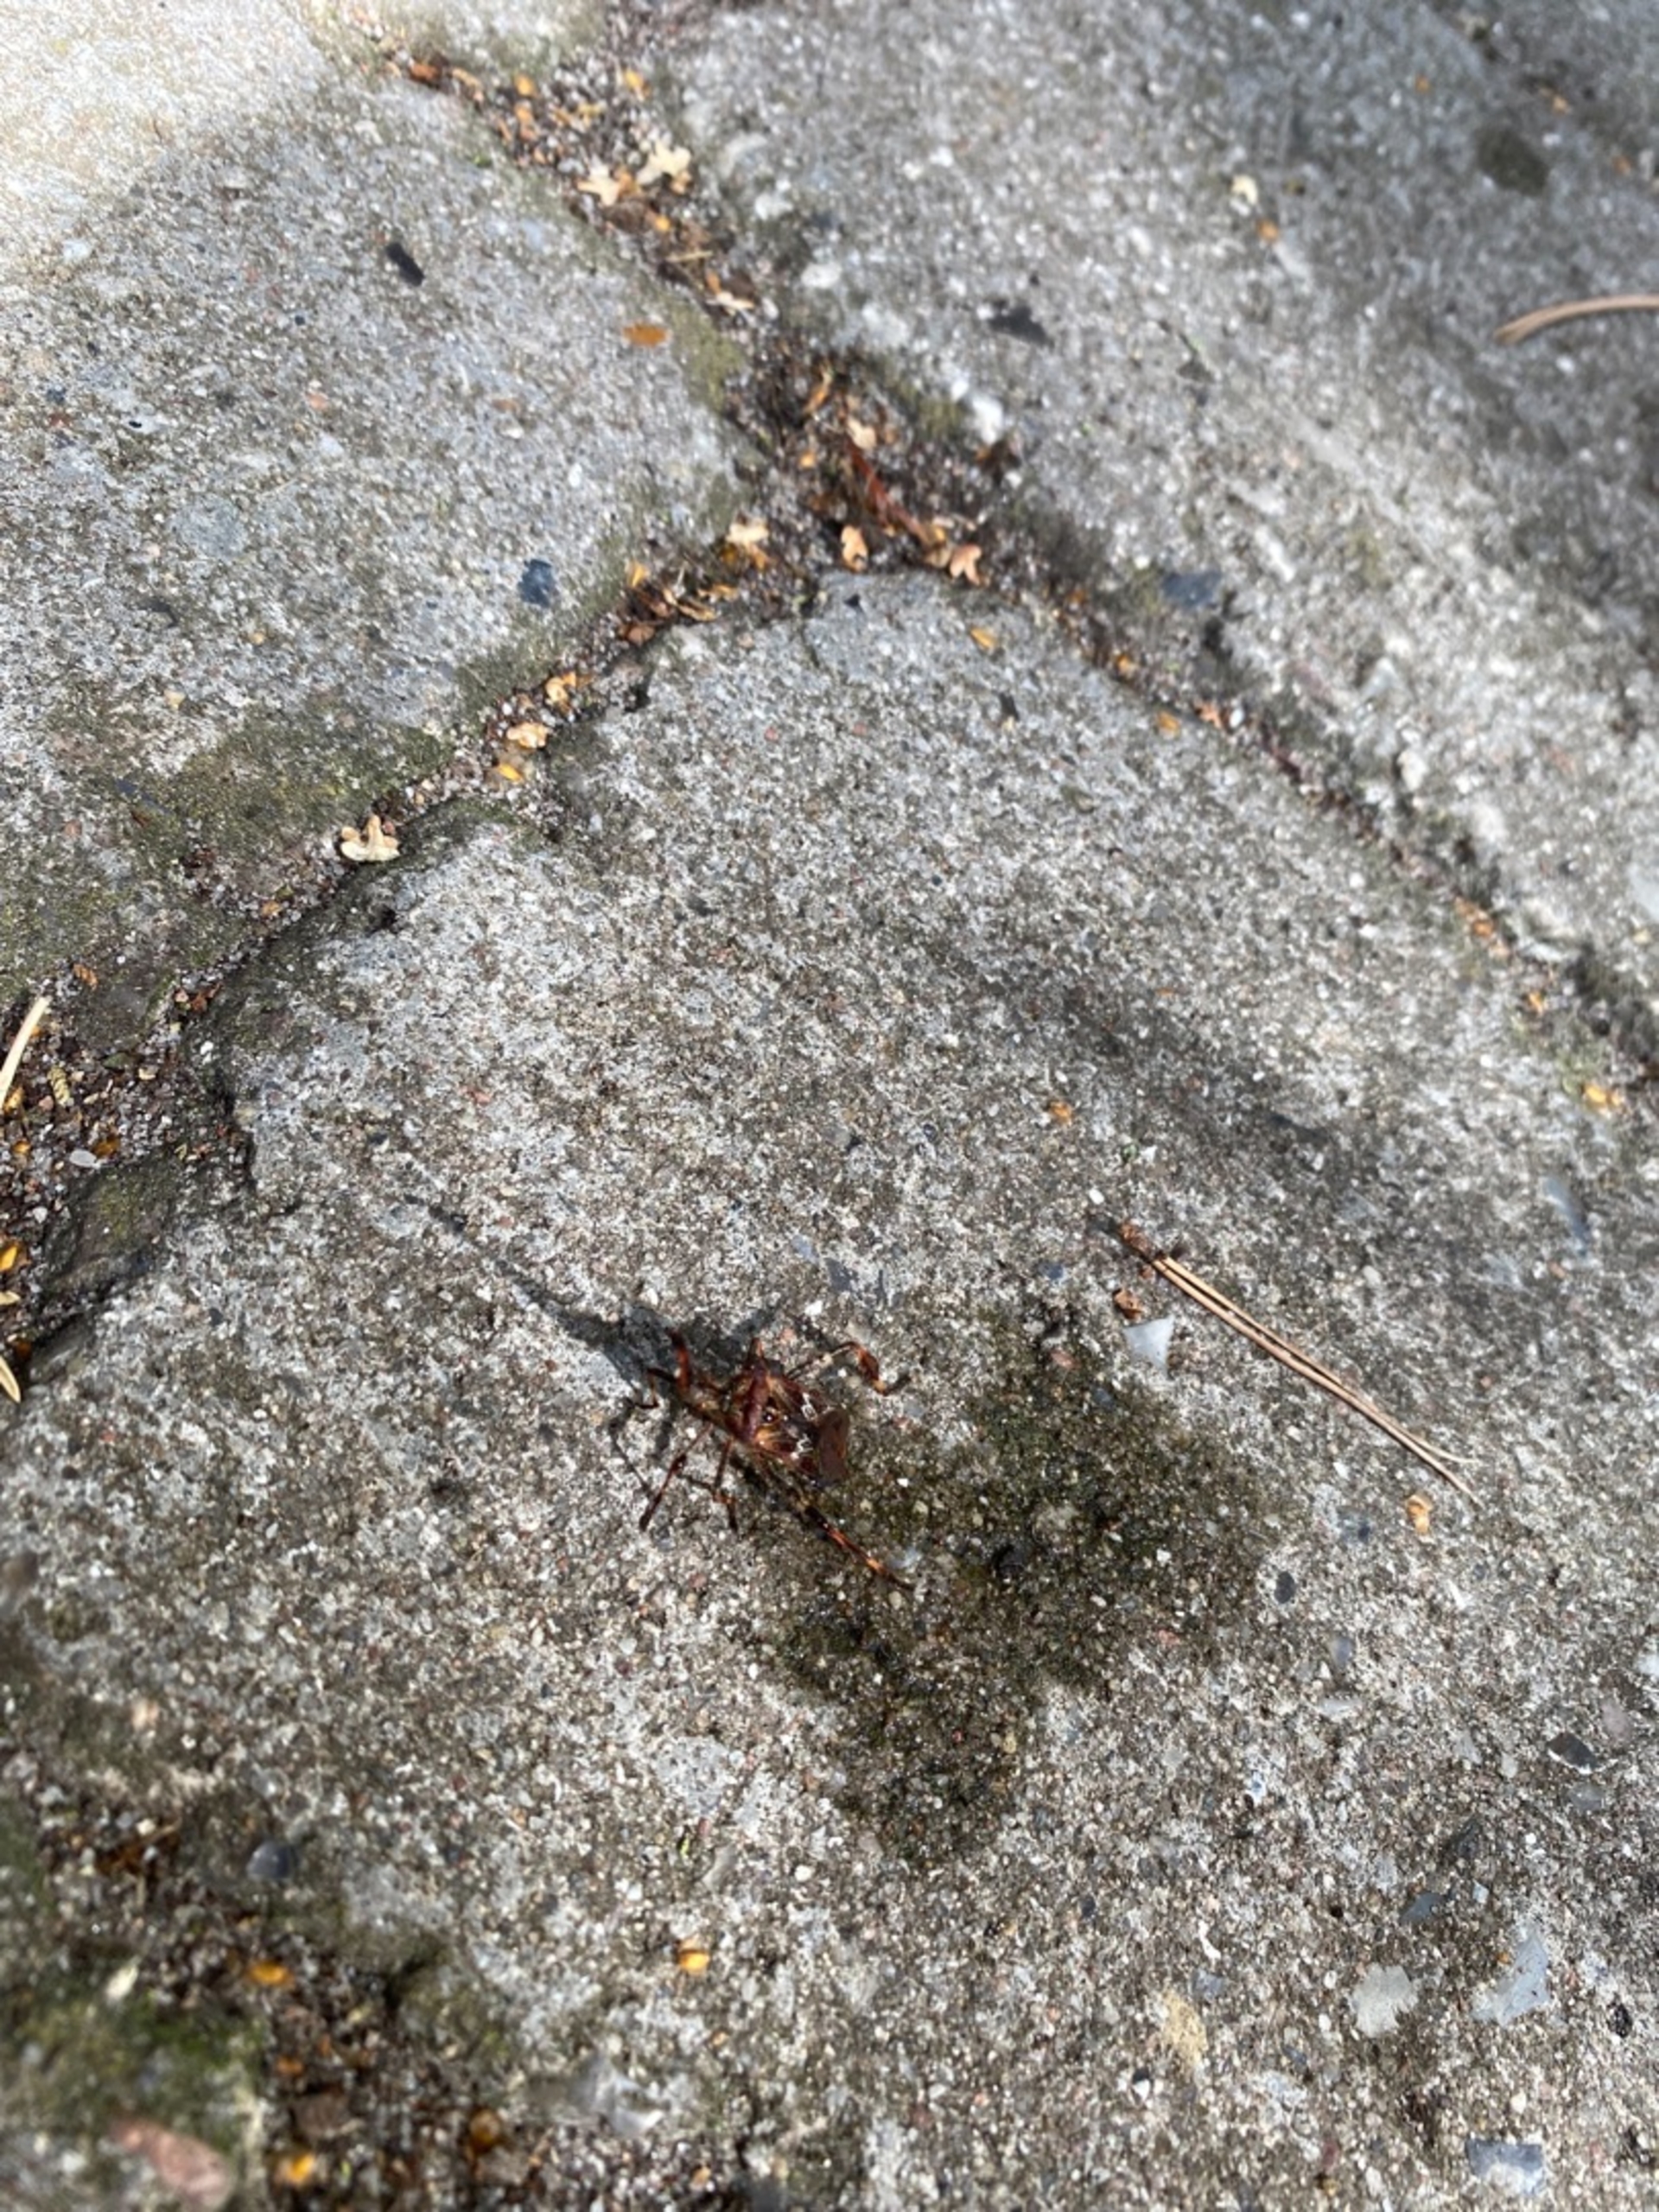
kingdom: Animalia
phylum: Arthropoda
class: Insecta
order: Hemiptera
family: Coreidae
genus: Leptoglossus
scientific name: Leptoglossus occidentalis
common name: Amerikansk fyrretæge
